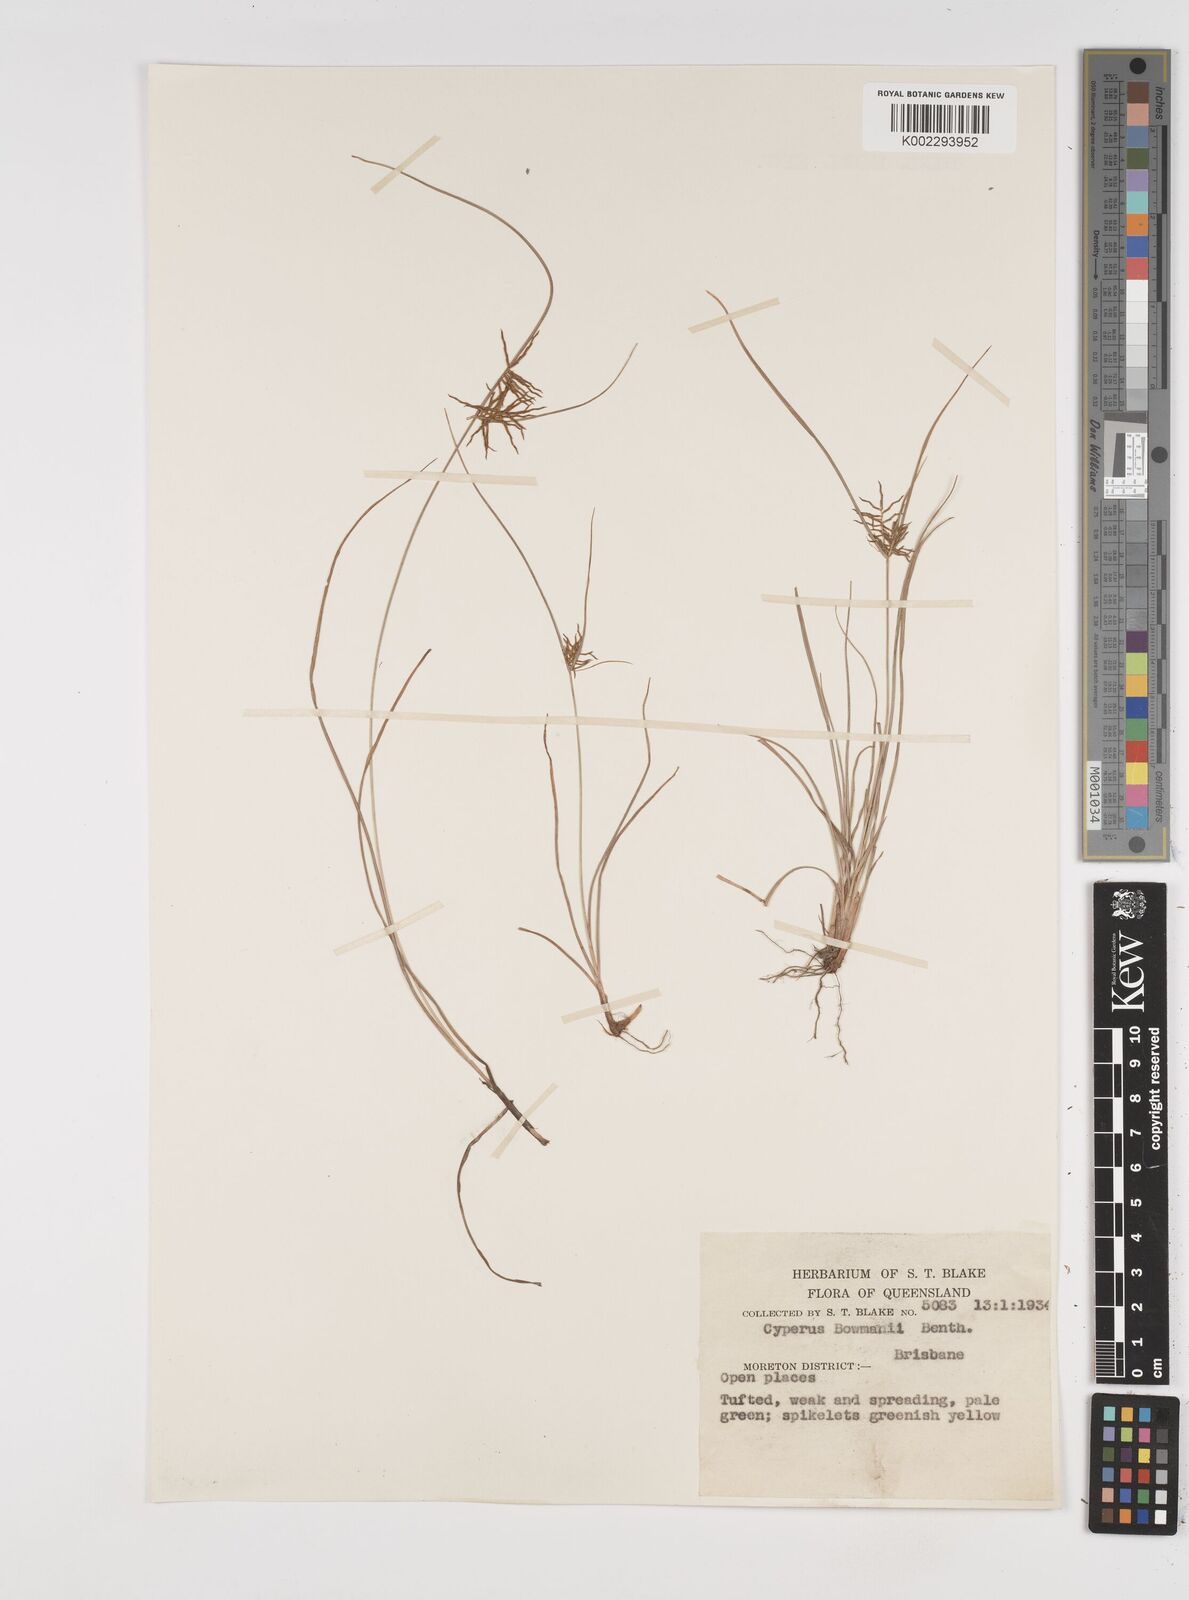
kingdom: Plantae
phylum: Tracheophyta
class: Liliopsida
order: Poales
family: Cyperaceae
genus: Cyperus
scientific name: Cyperus bowmanni
